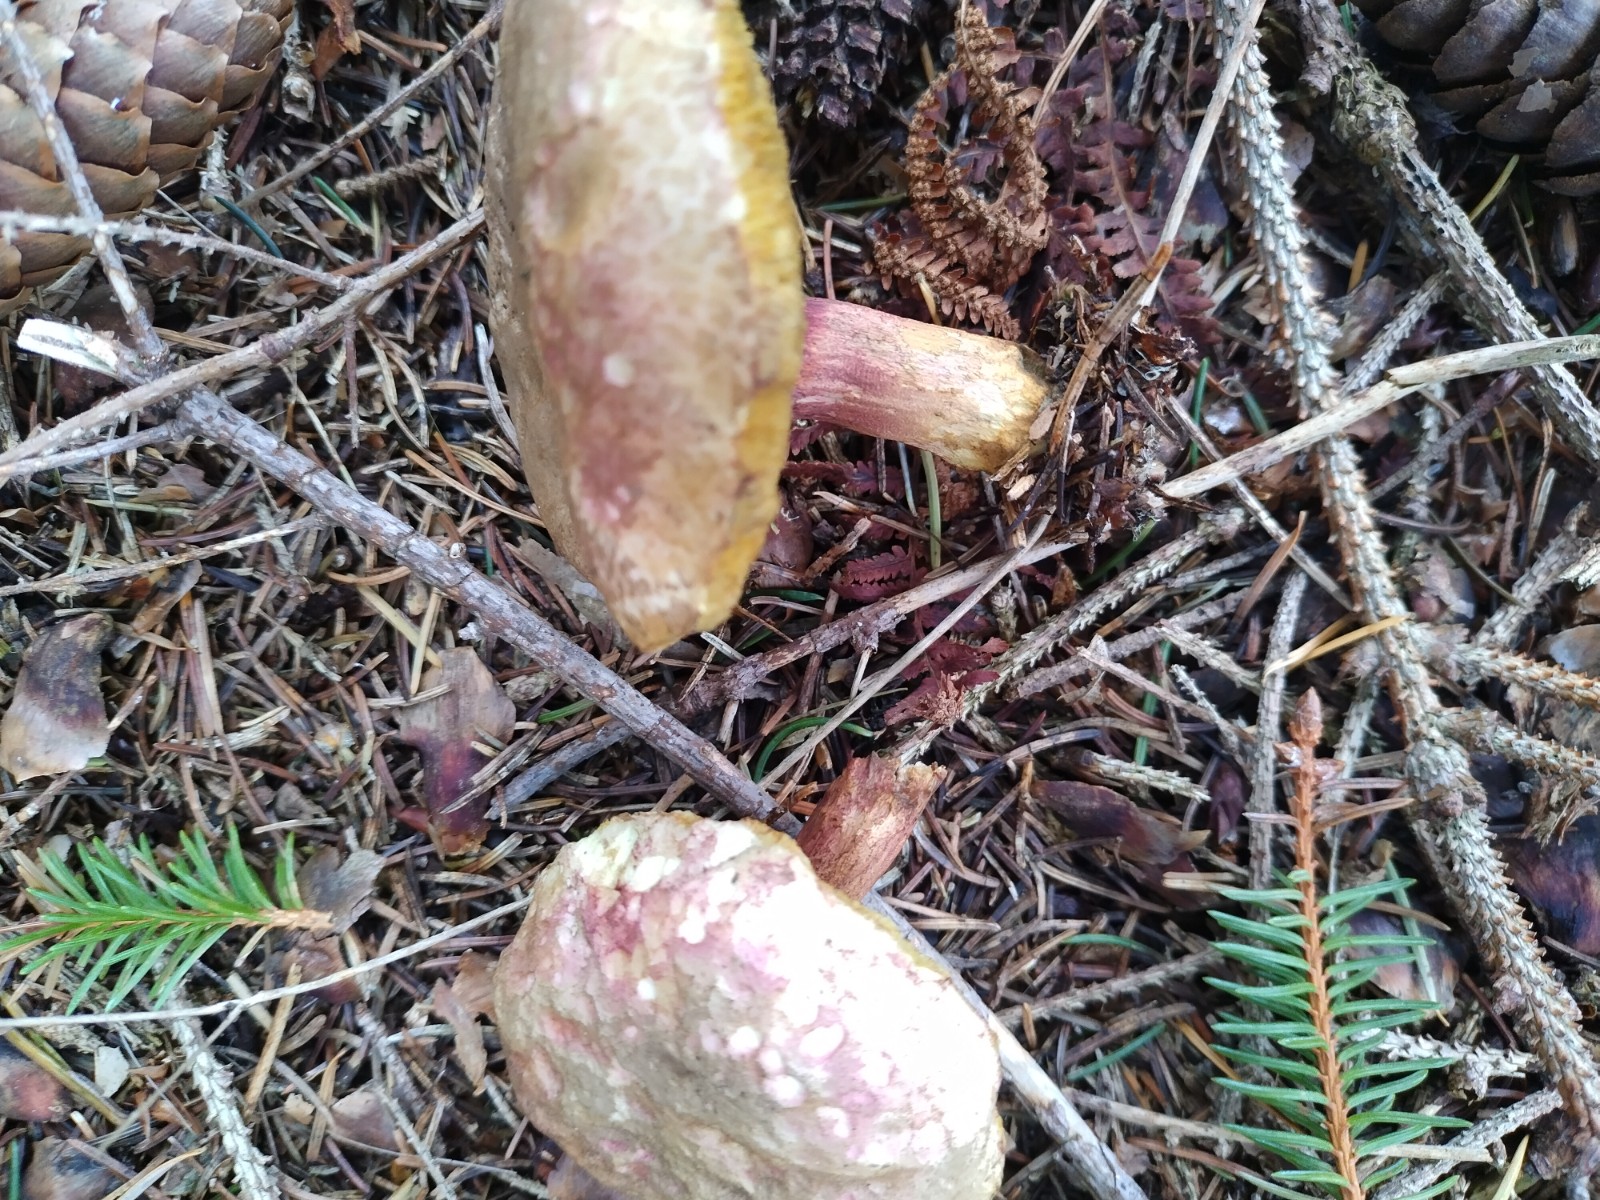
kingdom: Fungi
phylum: Basidiomycota
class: Agaricomycetes
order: Boletales
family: Boletaceae
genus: Xerocomellus
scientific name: Xerocomellus chrysenteron
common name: rødsprukken rørhat
